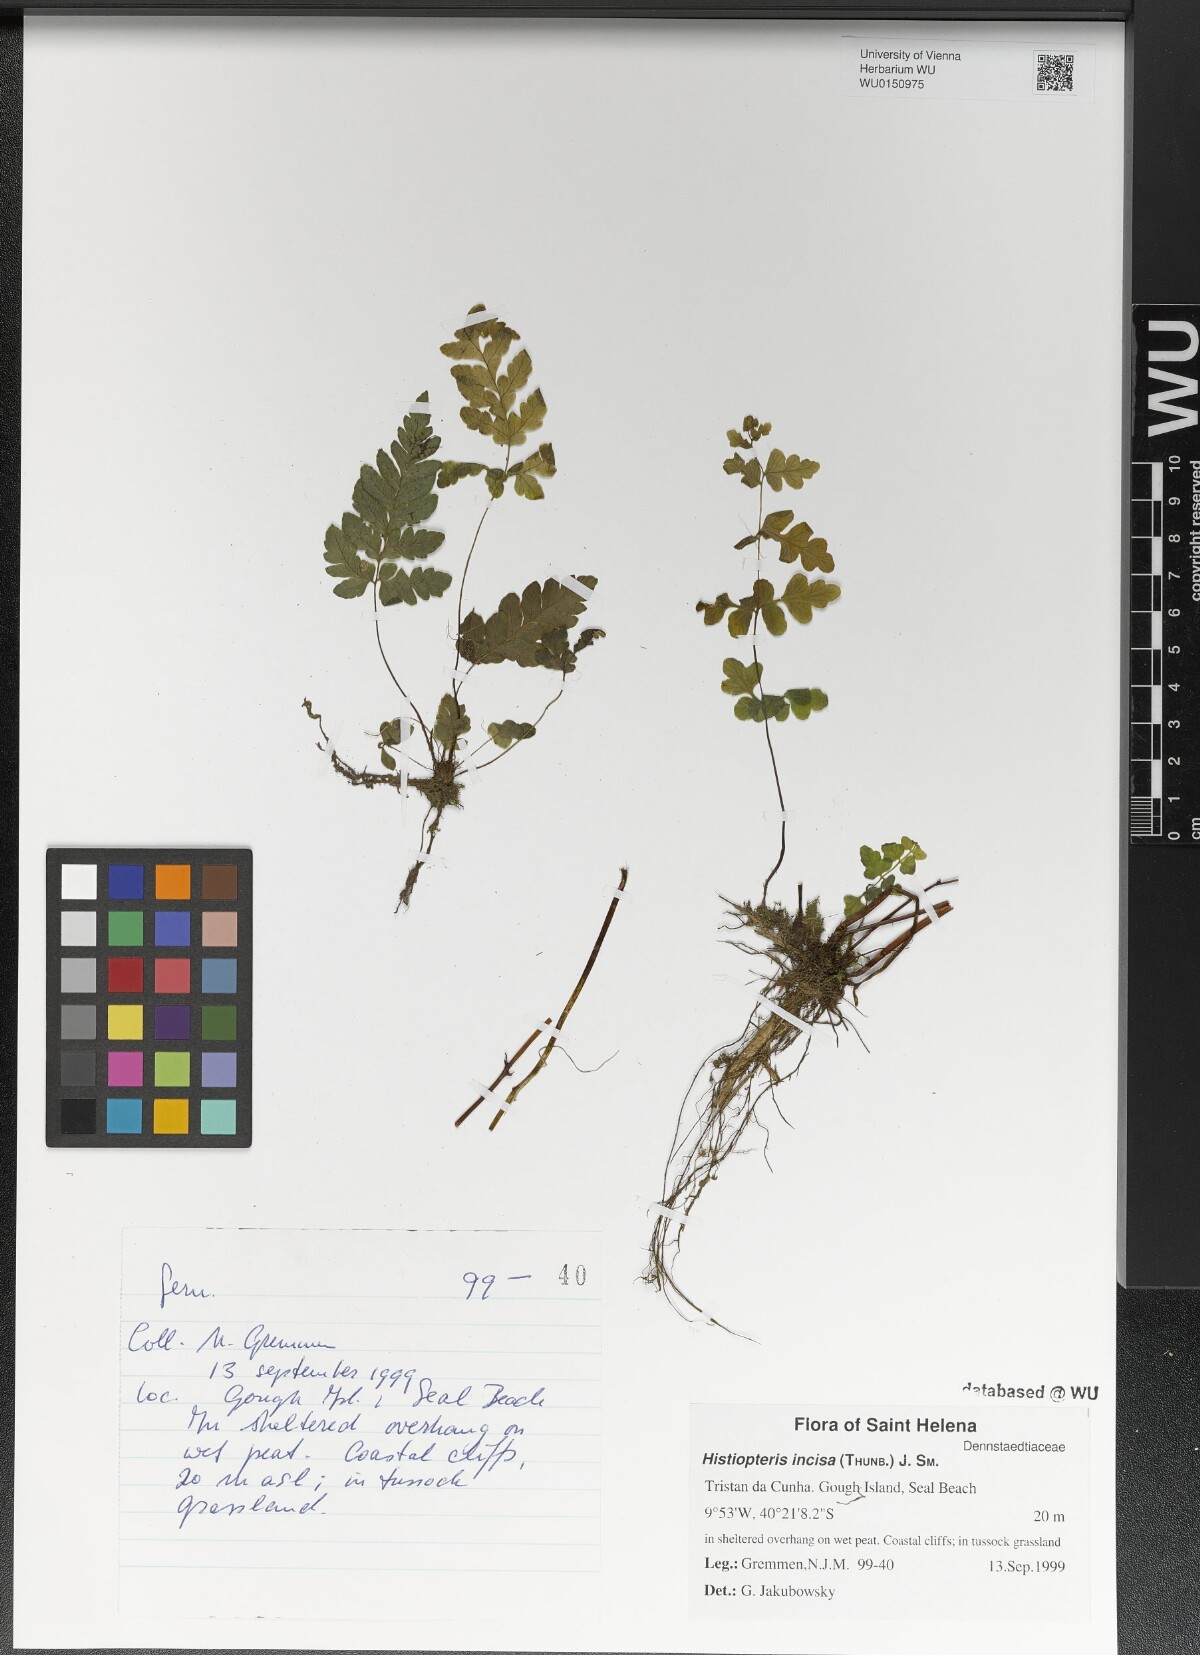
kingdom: Plantae
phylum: Tracheophyta
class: Polypodiopsida
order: Polypodiales
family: Dennstaedtiaceae
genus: Histiopteris
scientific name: Histiopteris incisa
